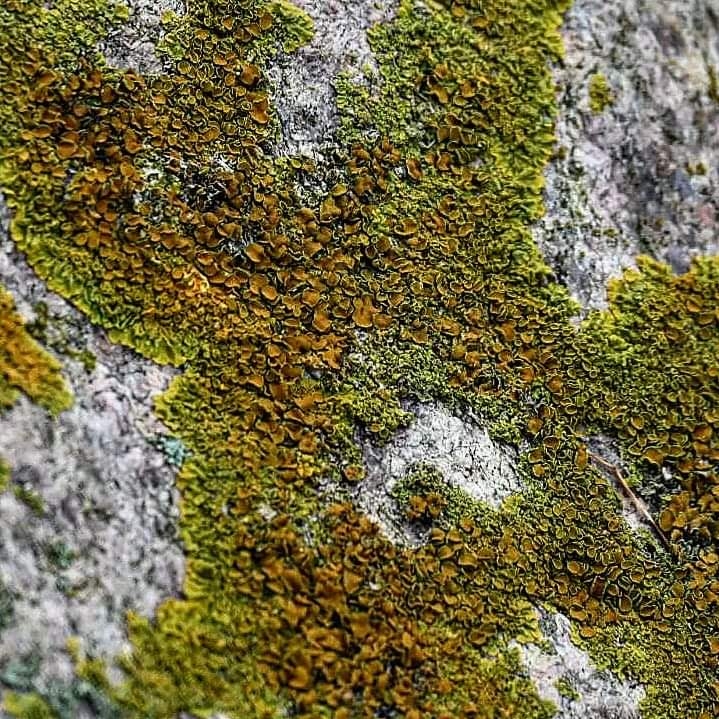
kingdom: Fungi
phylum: Ascomycota
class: Lecanoromycetes
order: Teloschistales
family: Teloschistaceae
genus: Xanthoria
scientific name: Xanthoria parietina
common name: almindelig væggelav
